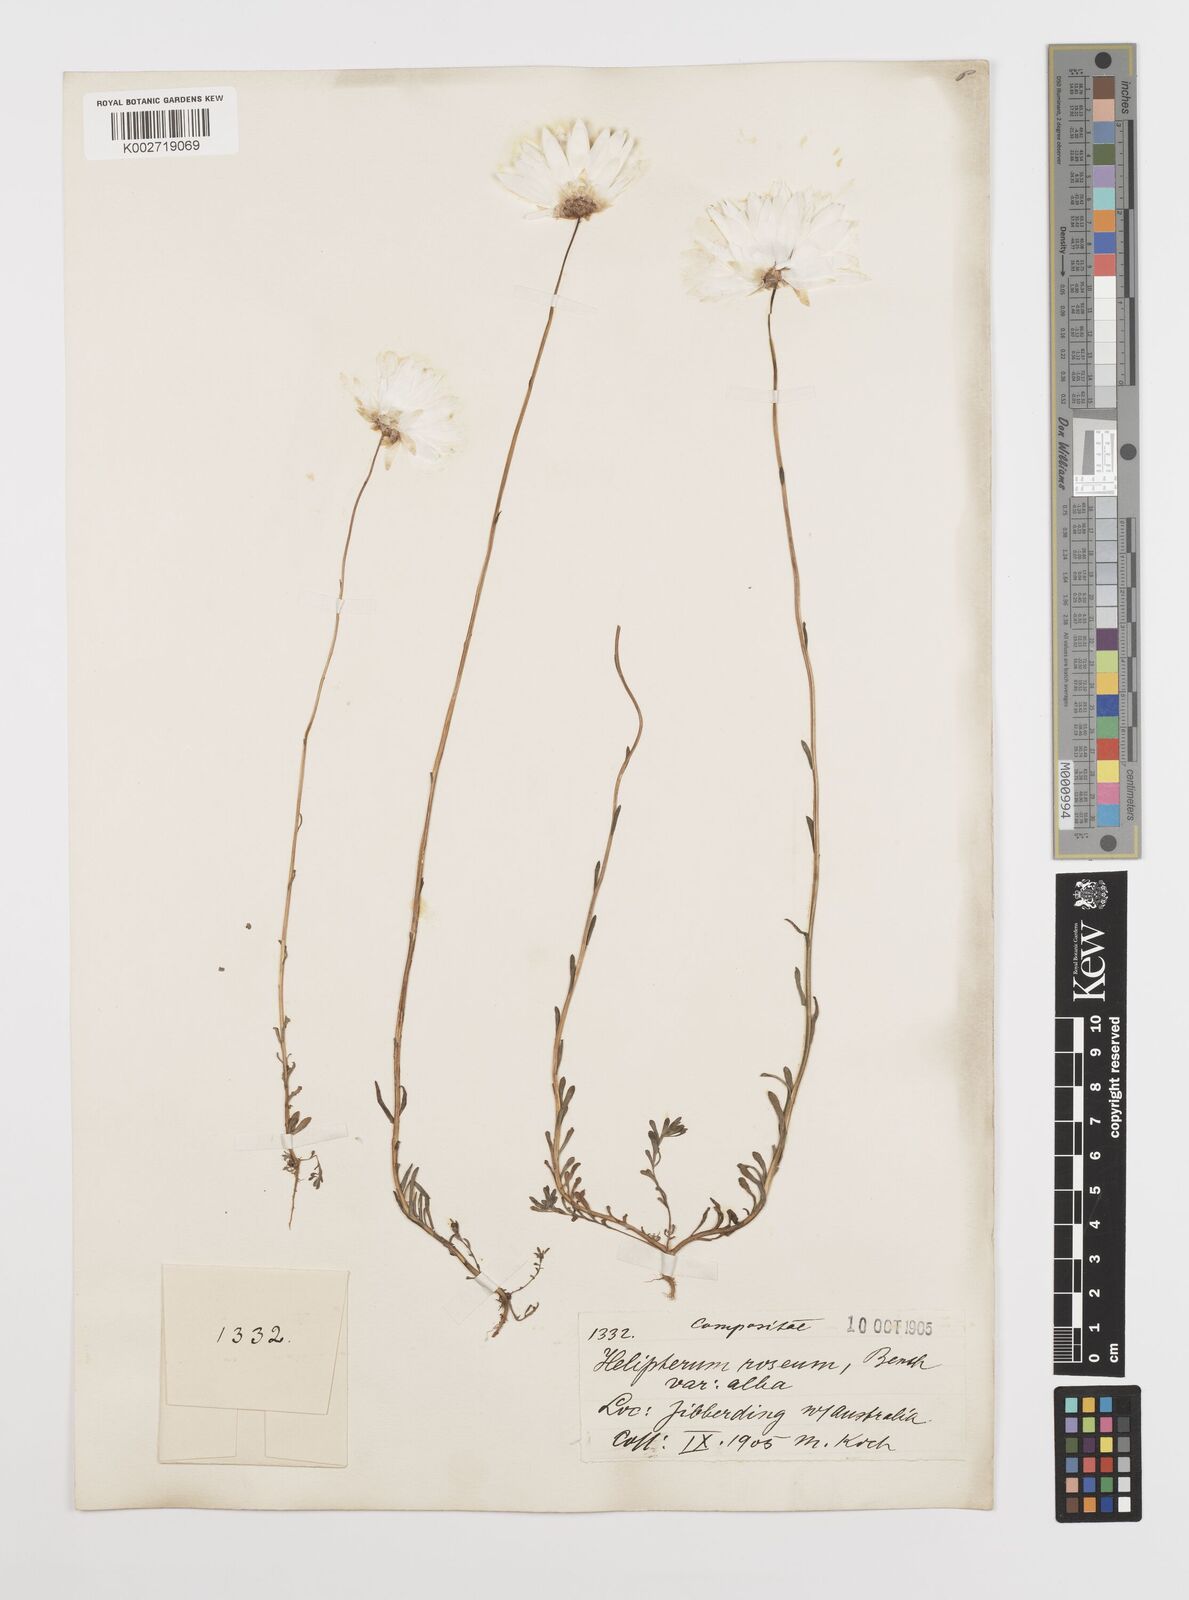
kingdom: Plantae
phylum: Tracheophyta
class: Magnoliopsida
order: Asterales
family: Asteraceae
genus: Rhodanthe
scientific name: Rhodanthe chlorocephala
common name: Rosy sunray
